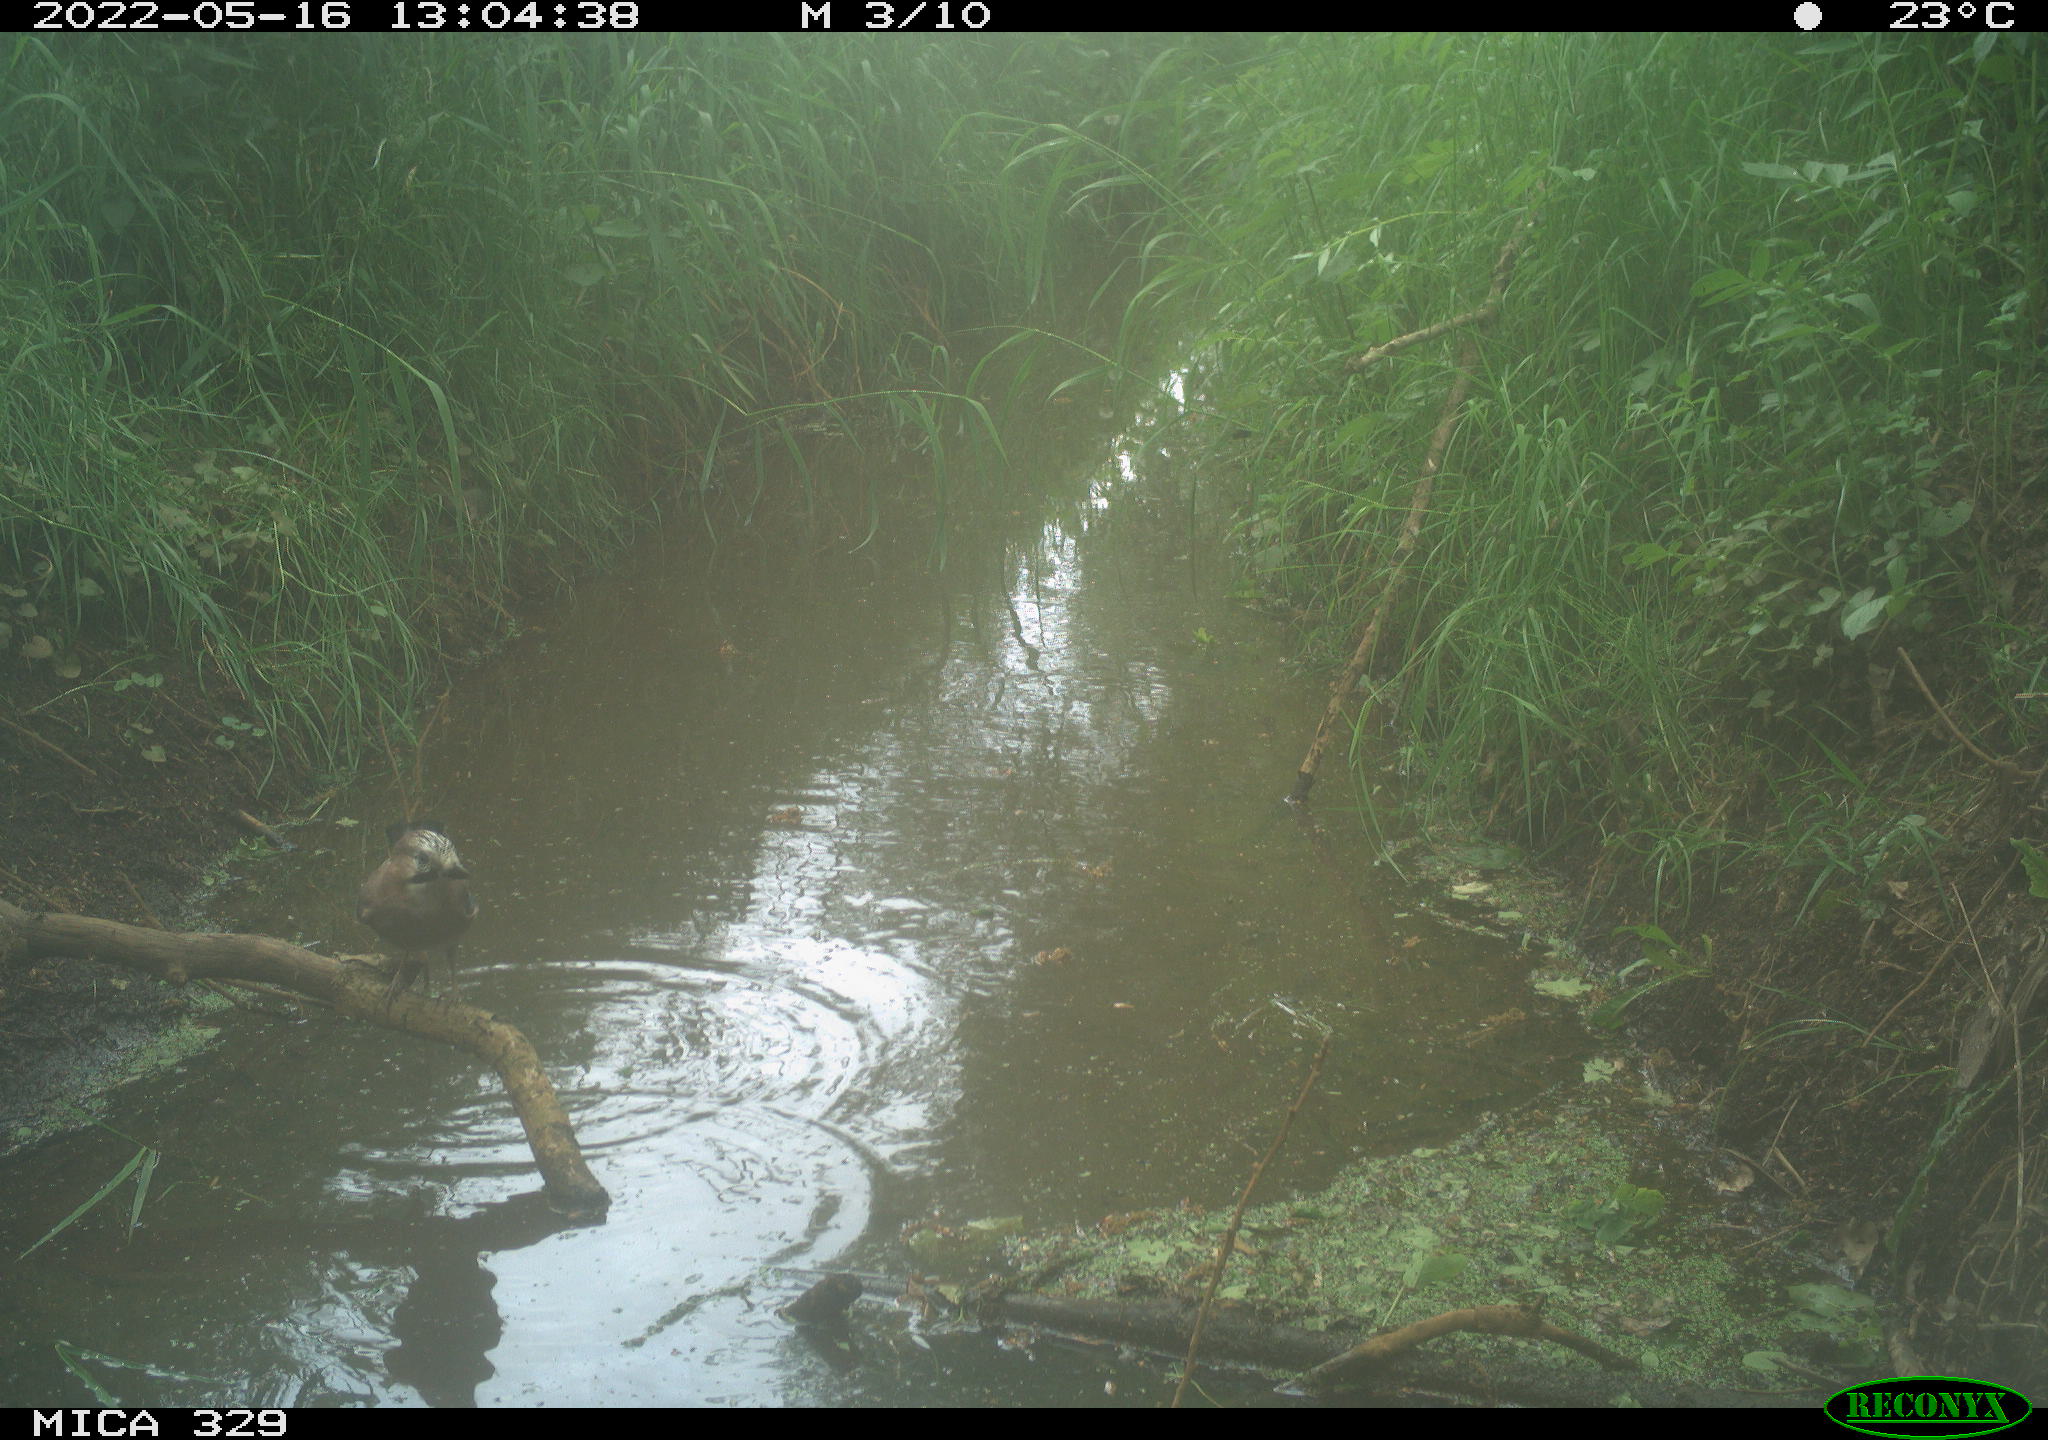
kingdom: Animalia
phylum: Chordata
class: Aves
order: Passeriformes
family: Corvidae
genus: Garrulus
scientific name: Garrulus glandarius
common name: Eurasian jay
